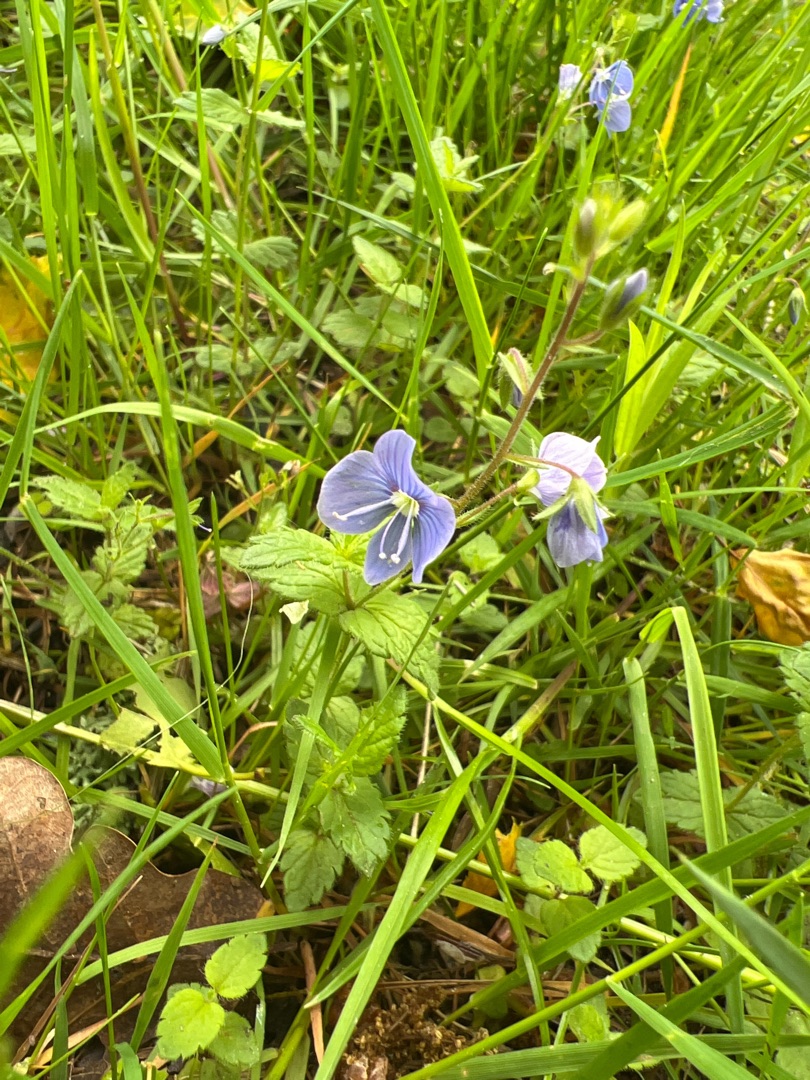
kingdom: Plantae
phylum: Tracheophyta
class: Magnoliopsida
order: Lamiales
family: Plantaginaceae
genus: Veronica
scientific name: Veronica chamaedrys
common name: Tveskægget ærenpris
